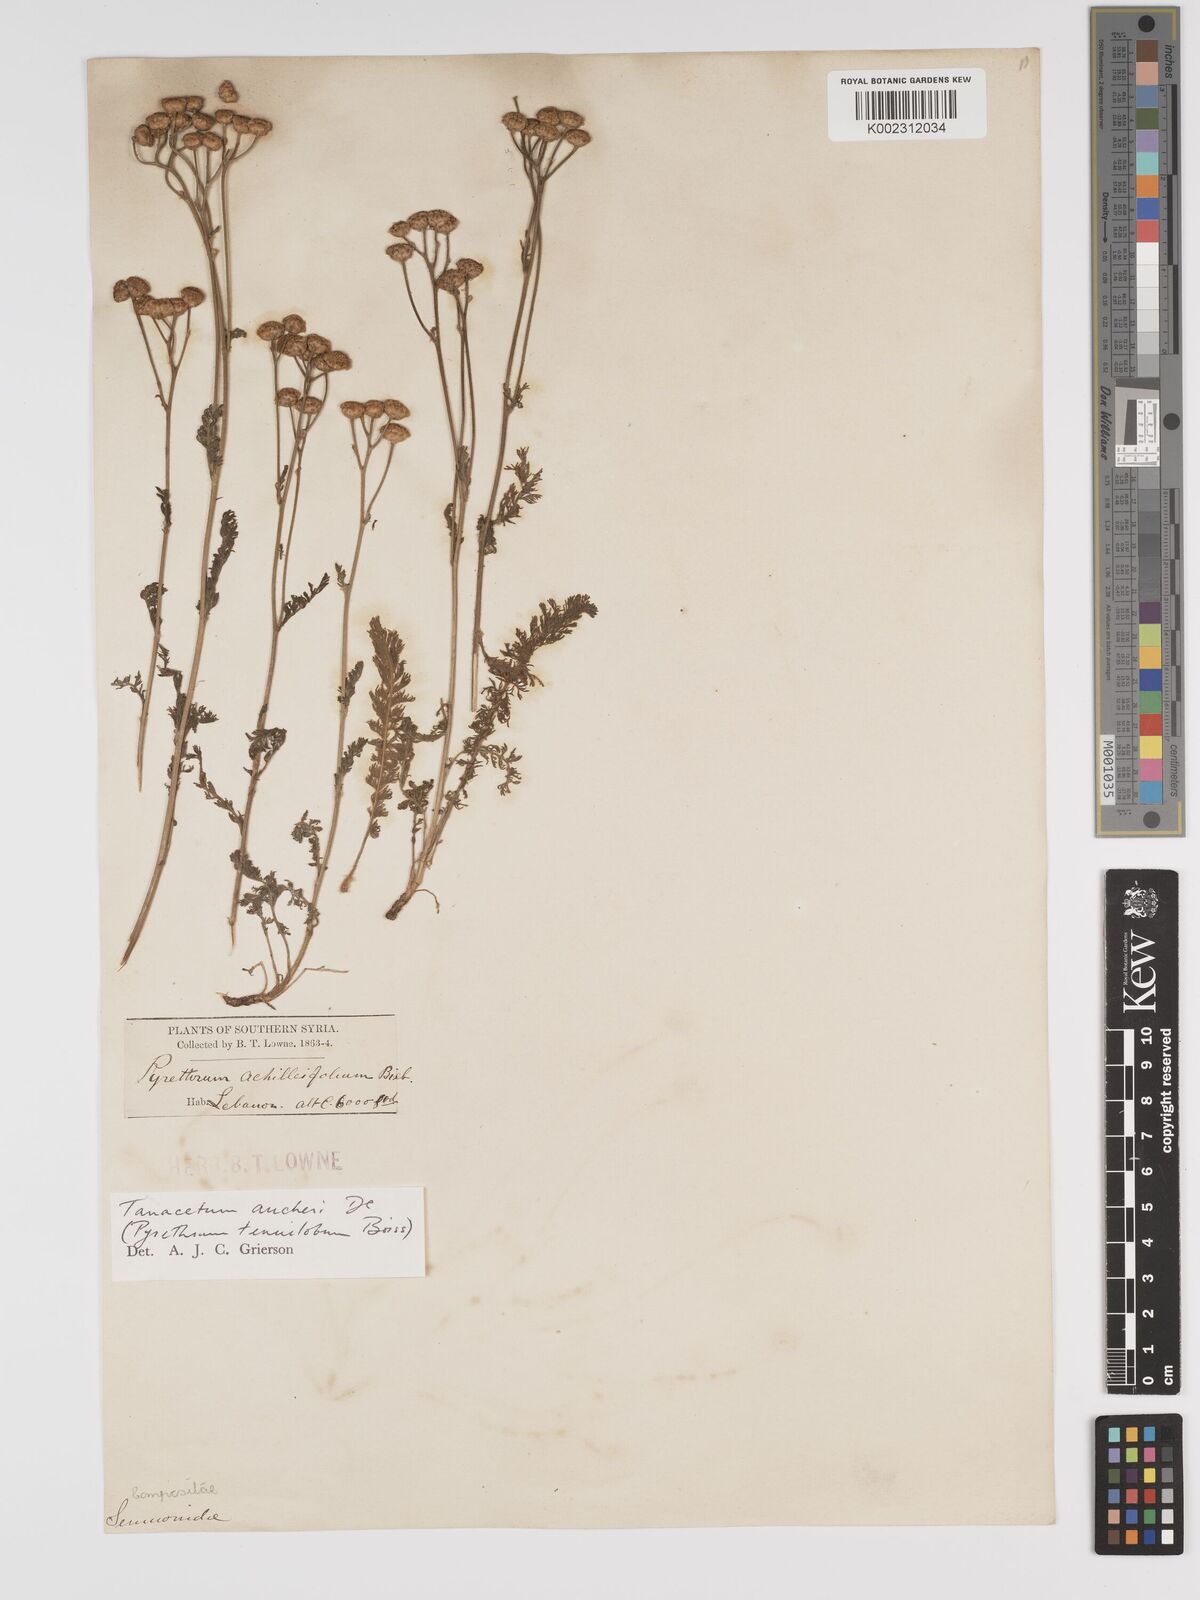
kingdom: Plantae
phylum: Tracheophyta
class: Magnoliopsida
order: Asterales
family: Asteraceae
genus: Tanacetum
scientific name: Tanacetum aucheri
